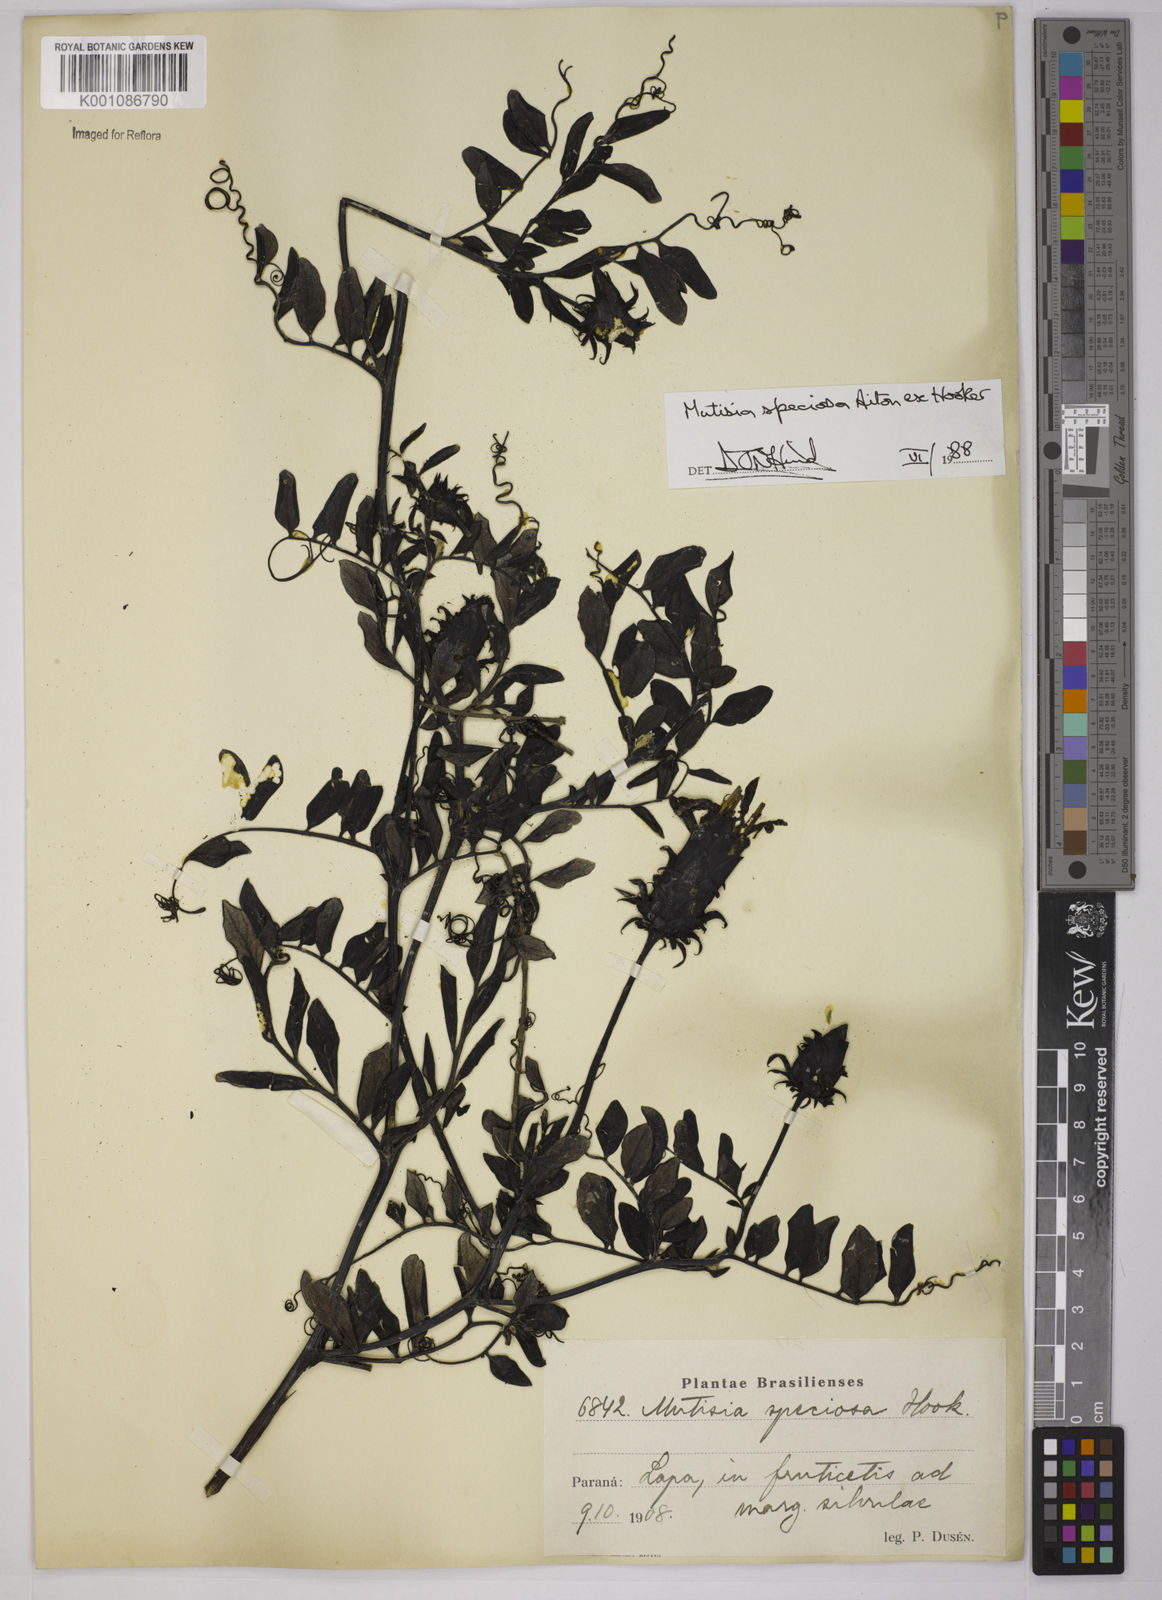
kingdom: Plantae
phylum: Tracheophyta
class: Magnoliopsida
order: Asterales
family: Asteraceae
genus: Mutisia
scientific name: Mutisia speciosa
